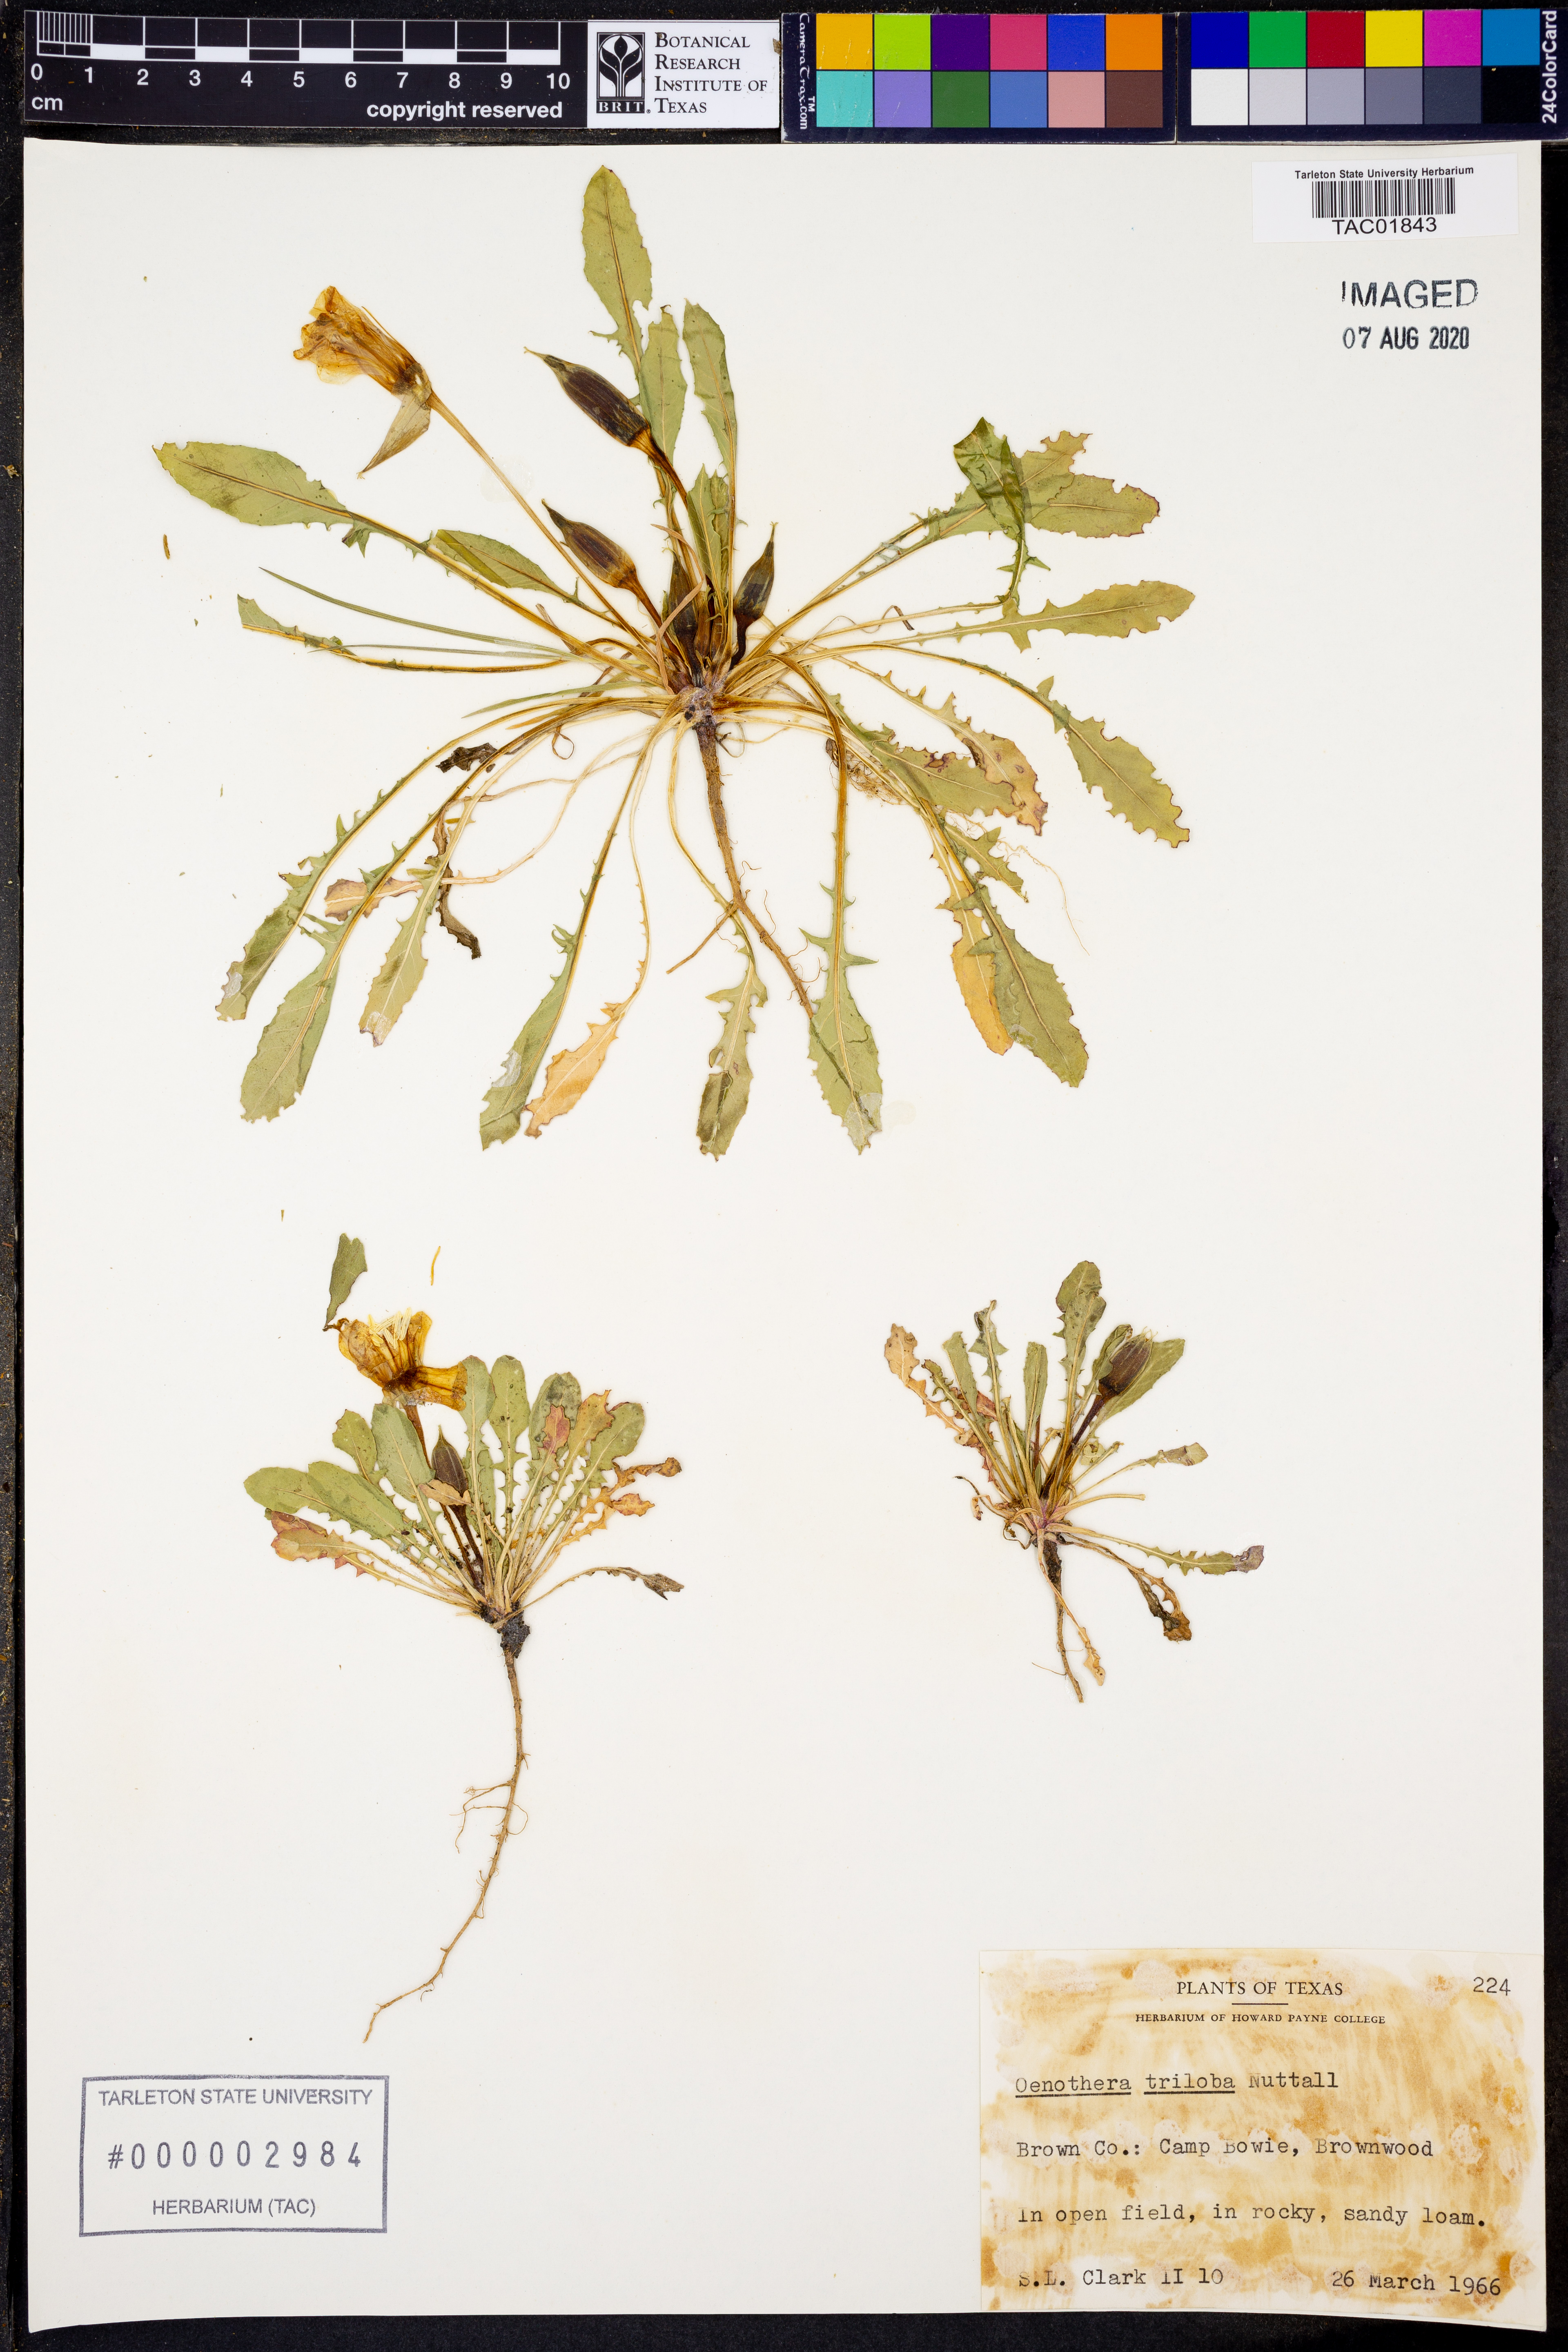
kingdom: Plantae
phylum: Tracheophyta
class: Magnoliopsida
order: Myrtales
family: Onagraceae
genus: Oenothera
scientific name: Oenothera triloba
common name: Sessile evening-primrose
